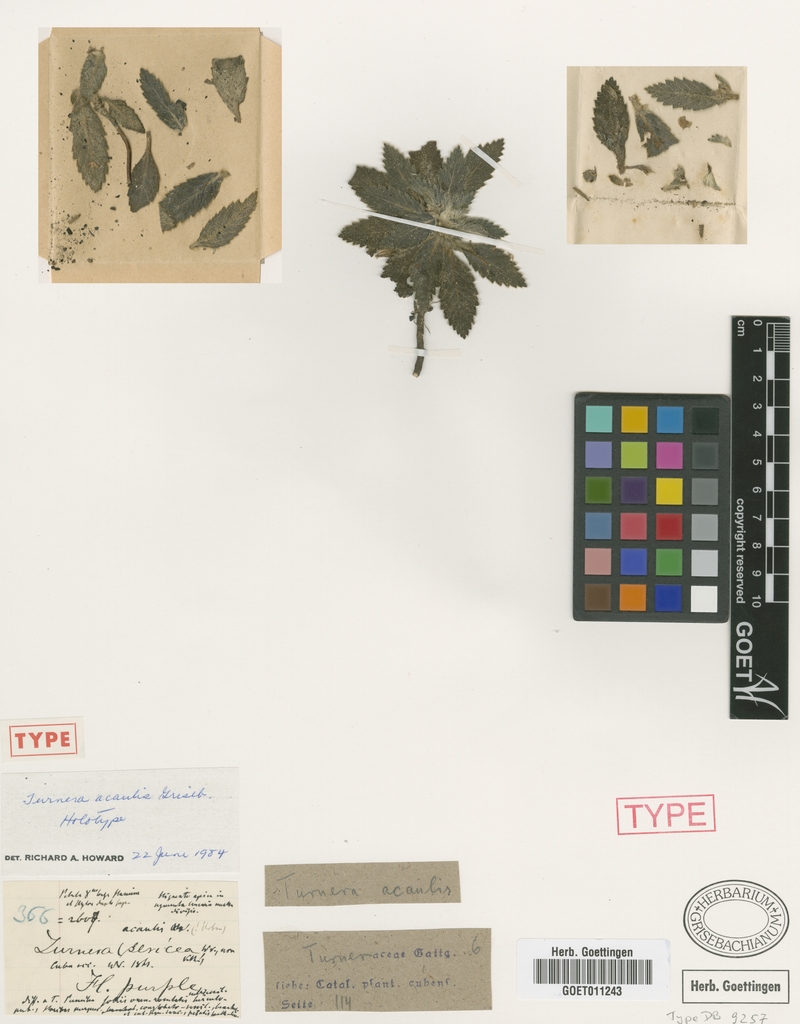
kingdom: Plantae
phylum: Tracheophyta
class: Magnoliopsida
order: Malpighiales
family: Turneraceae
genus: Turnera
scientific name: Turnera acaulis
